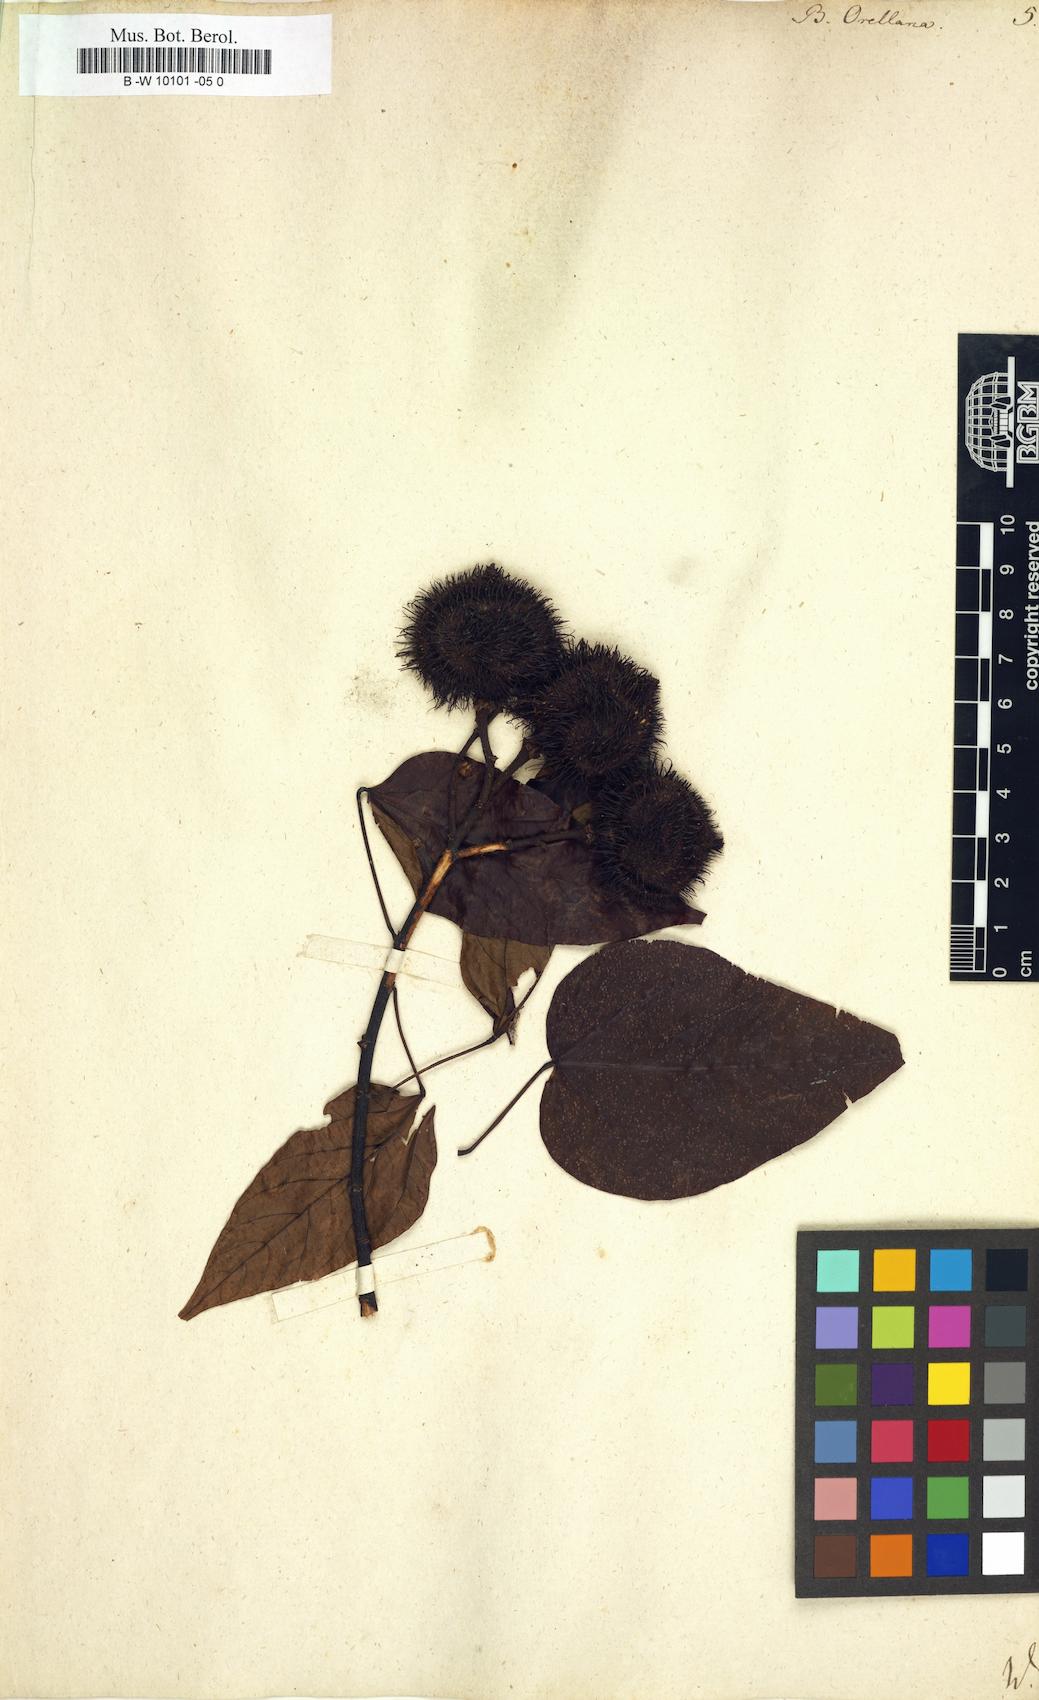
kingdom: Plantae
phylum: Tracheophyta
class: Magnoliopsida
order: Malvales
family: Bixaceae
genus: Bixa
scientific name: Bixa orellana
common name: Lipsticktree
